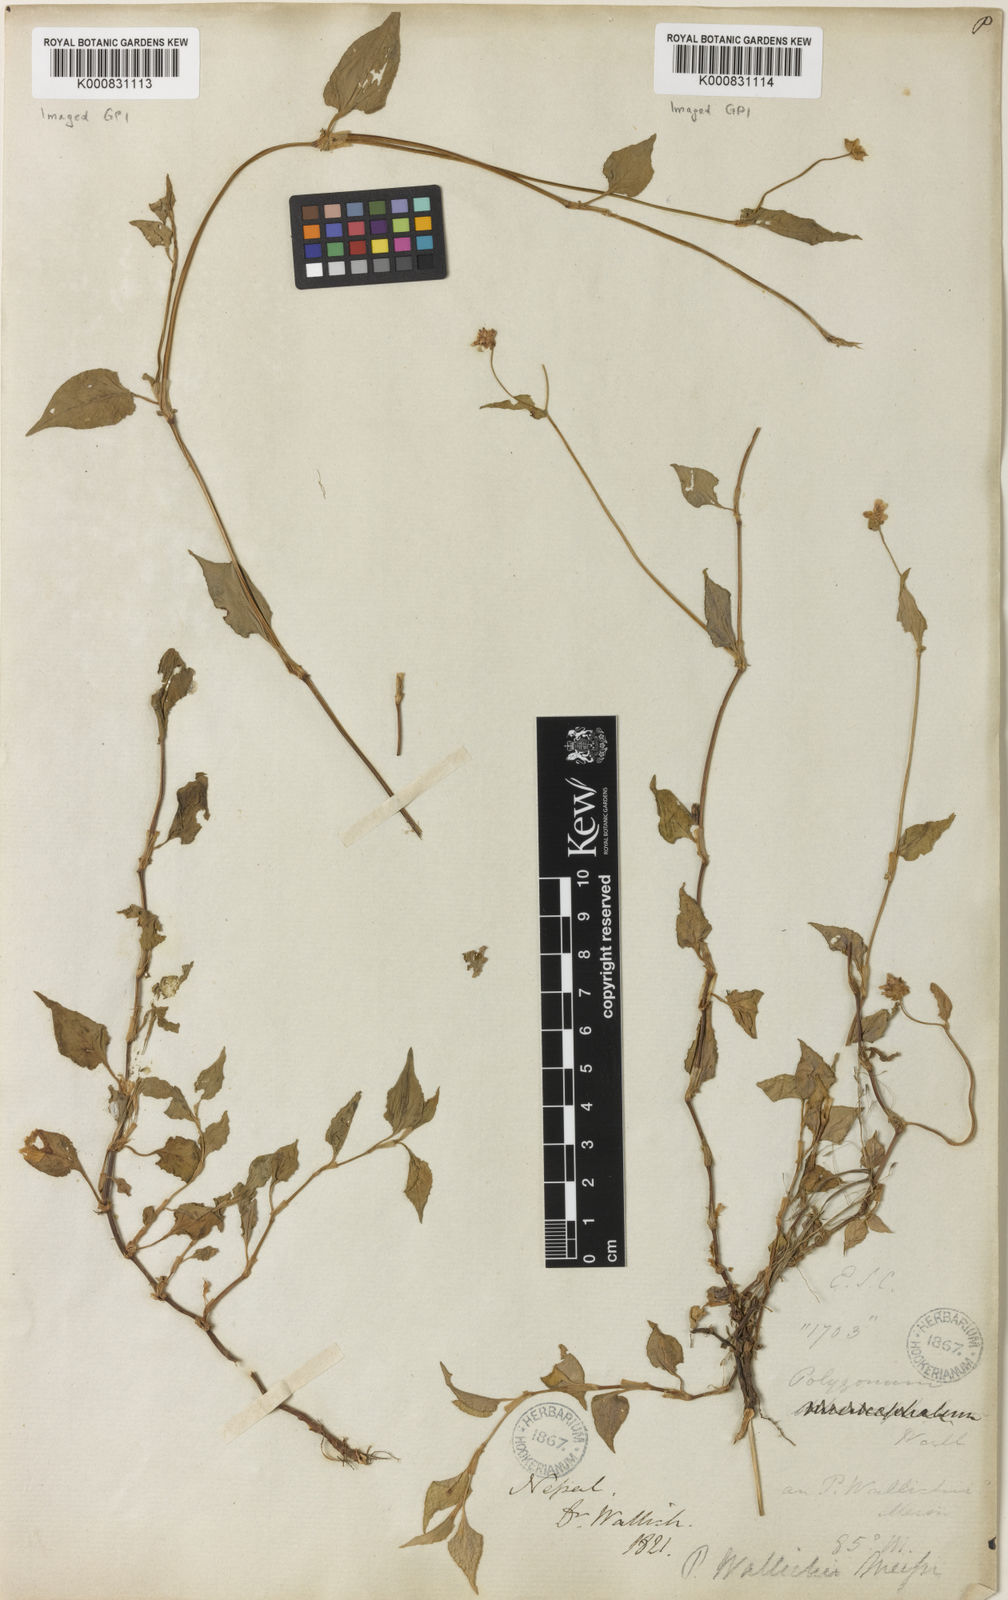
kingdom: Plantae
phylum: Tracheophyta
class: Magnoliopsida
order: Caryophyllales
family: Polygonaceae
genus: Persicaria
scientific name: Persicaria microcephala
